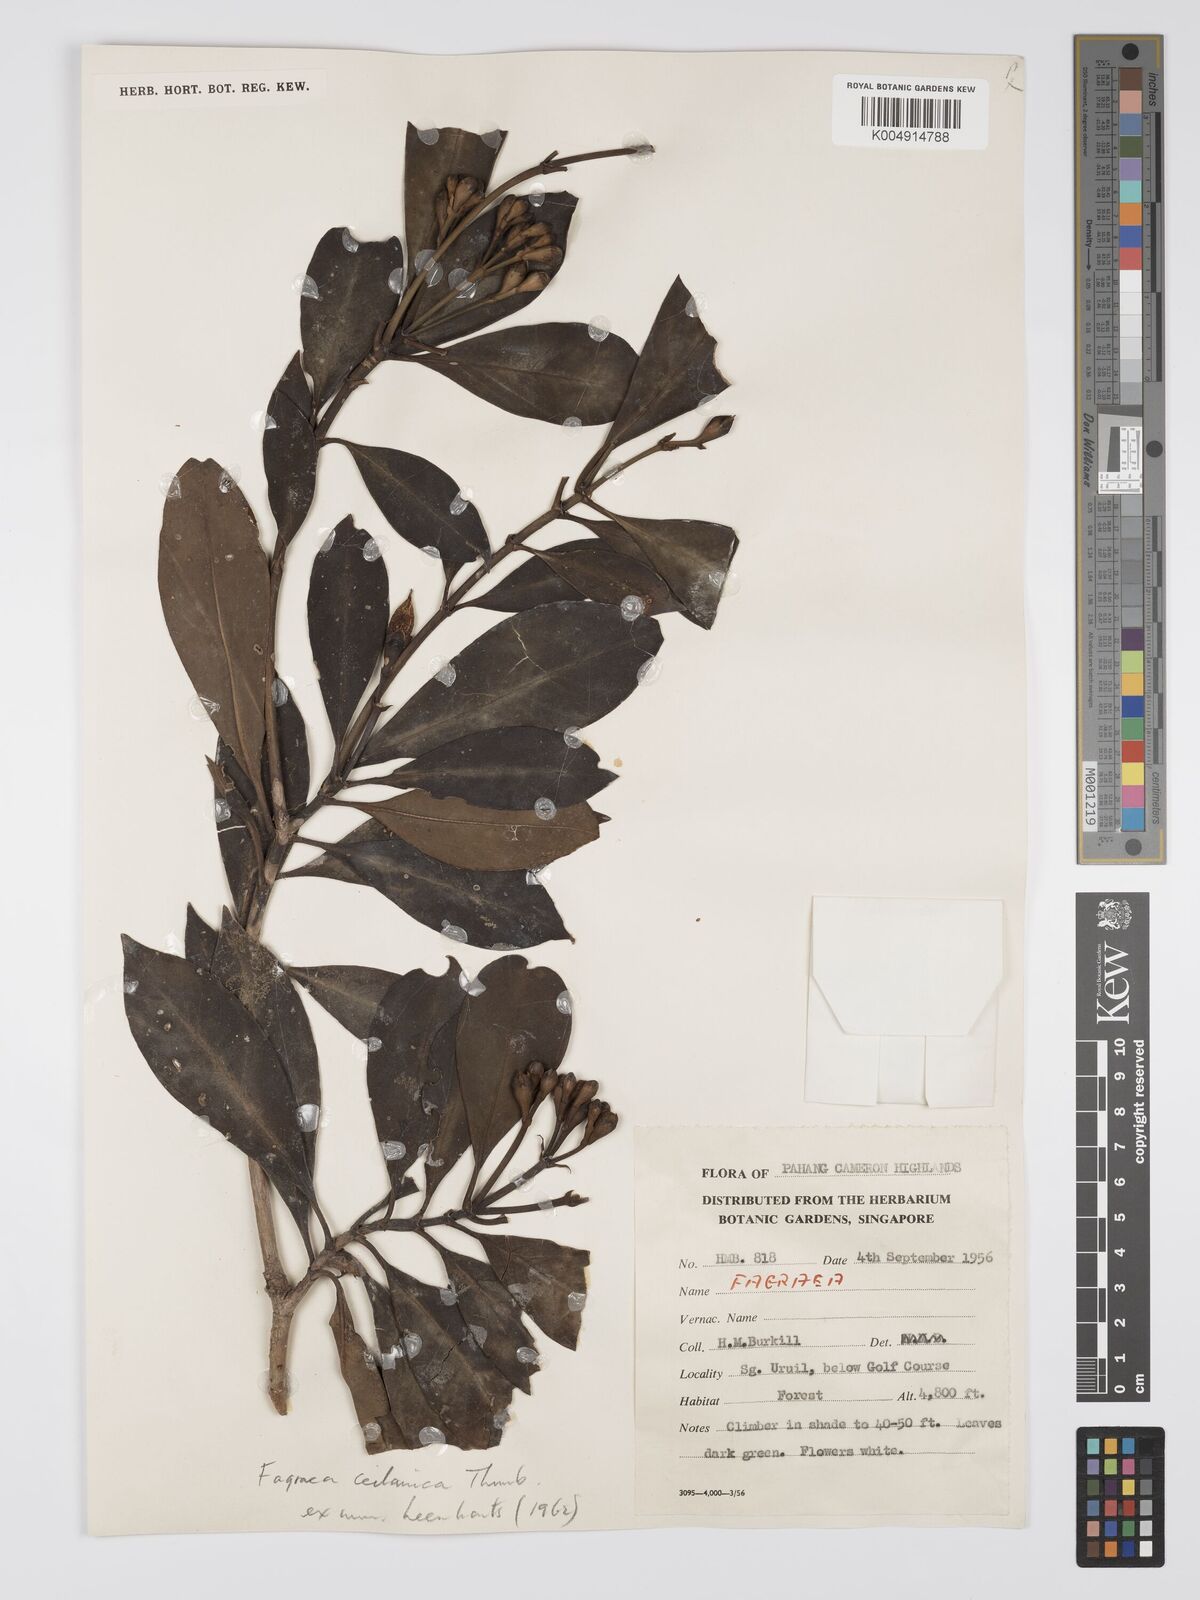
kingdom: Plantae
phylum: Tracheophyta
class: Magnoliopsida
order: Gentianales
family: Gentianaceae
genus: Fagraea
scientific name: Fagraea oblonga
